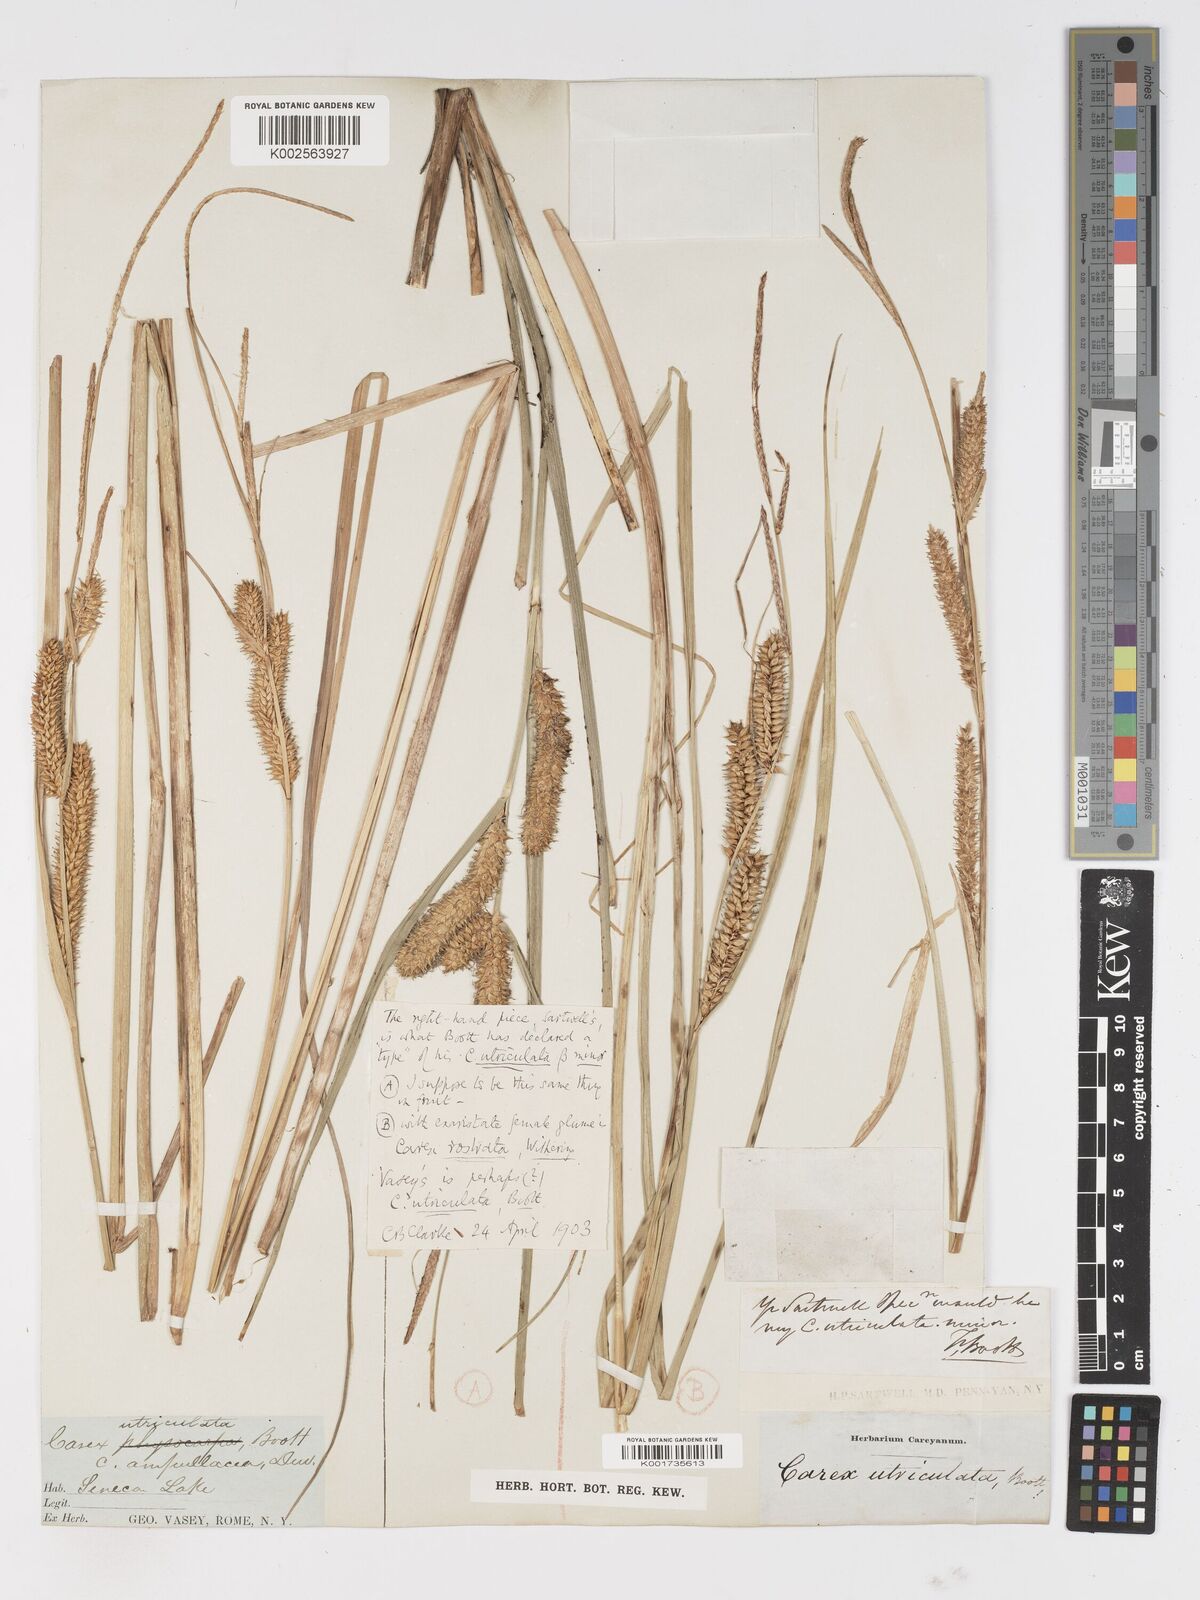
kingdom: Plantae
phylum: Tracheophyta
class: Liliopsida
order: Poales
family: Cyperaceae
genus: Carex
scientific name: Carex rostrata
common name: Bottle sedge
